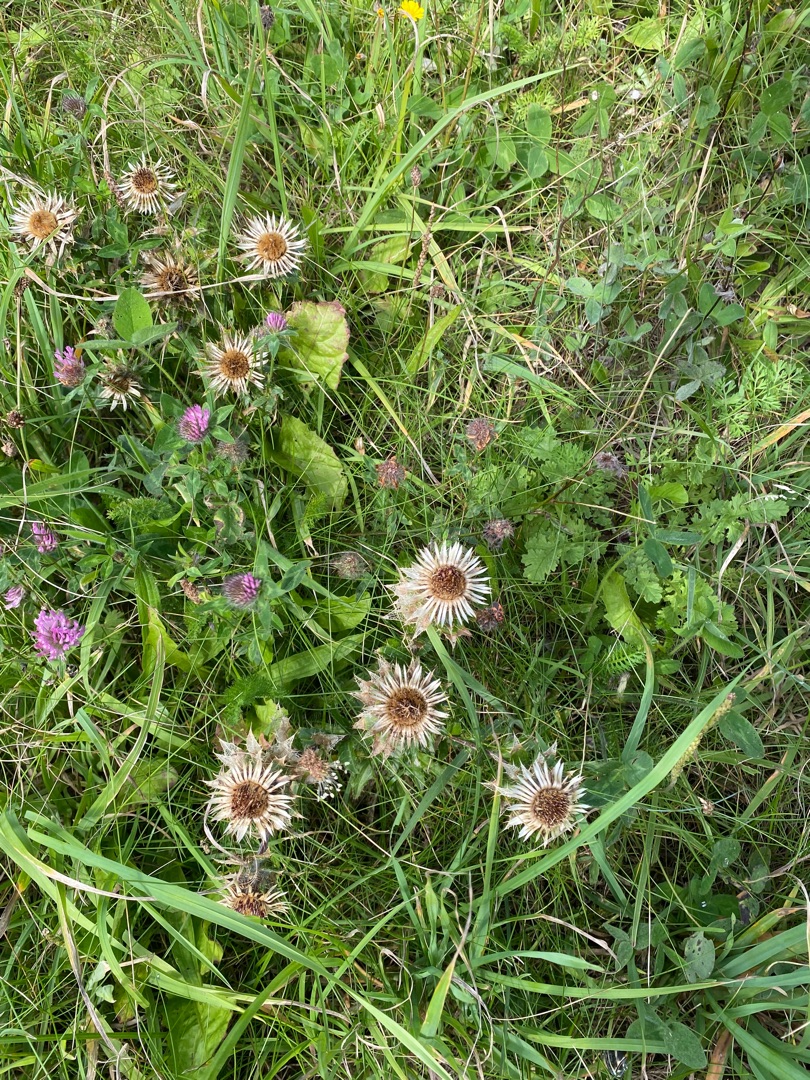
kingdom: Plantae
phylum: Tracheophyta
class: Magnoliopsida
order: Asterales
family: Asteraceae
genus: Carlina
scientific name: Carlina vulgaris
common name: Bakketidsel
